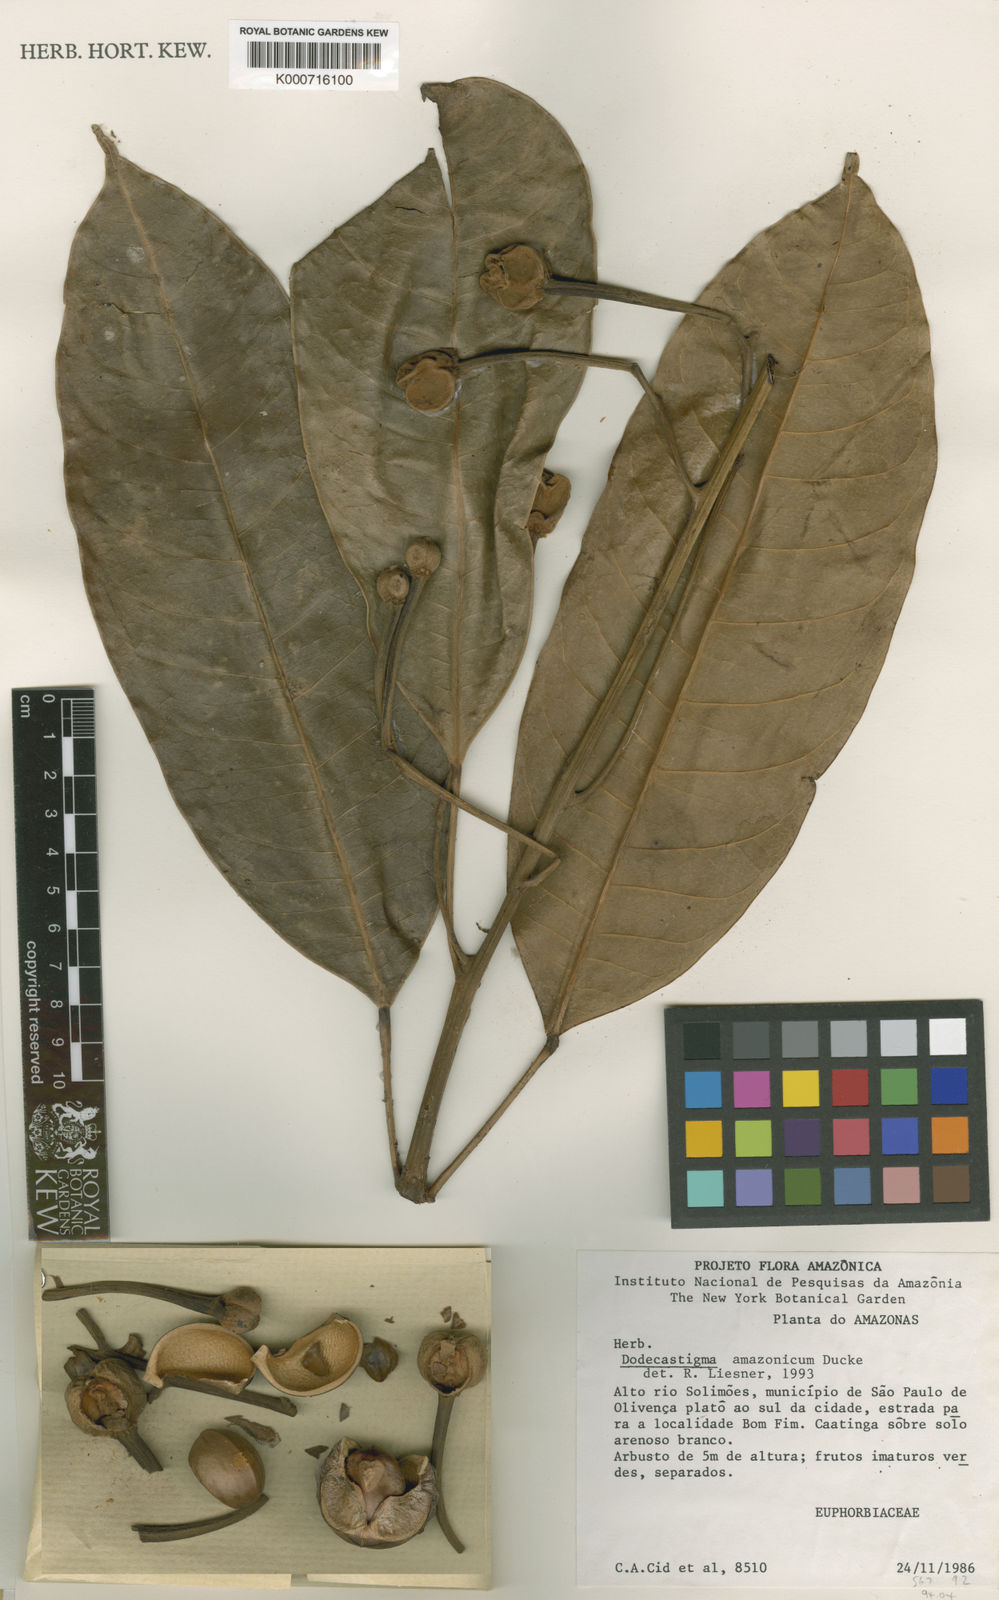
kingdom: Plantae
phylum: Tracheophyta
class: Magnoliopsida
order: Malpighiales
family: Euphorbiaceae
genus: Dodecastigma
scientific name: Dodecastigma amazonicum
